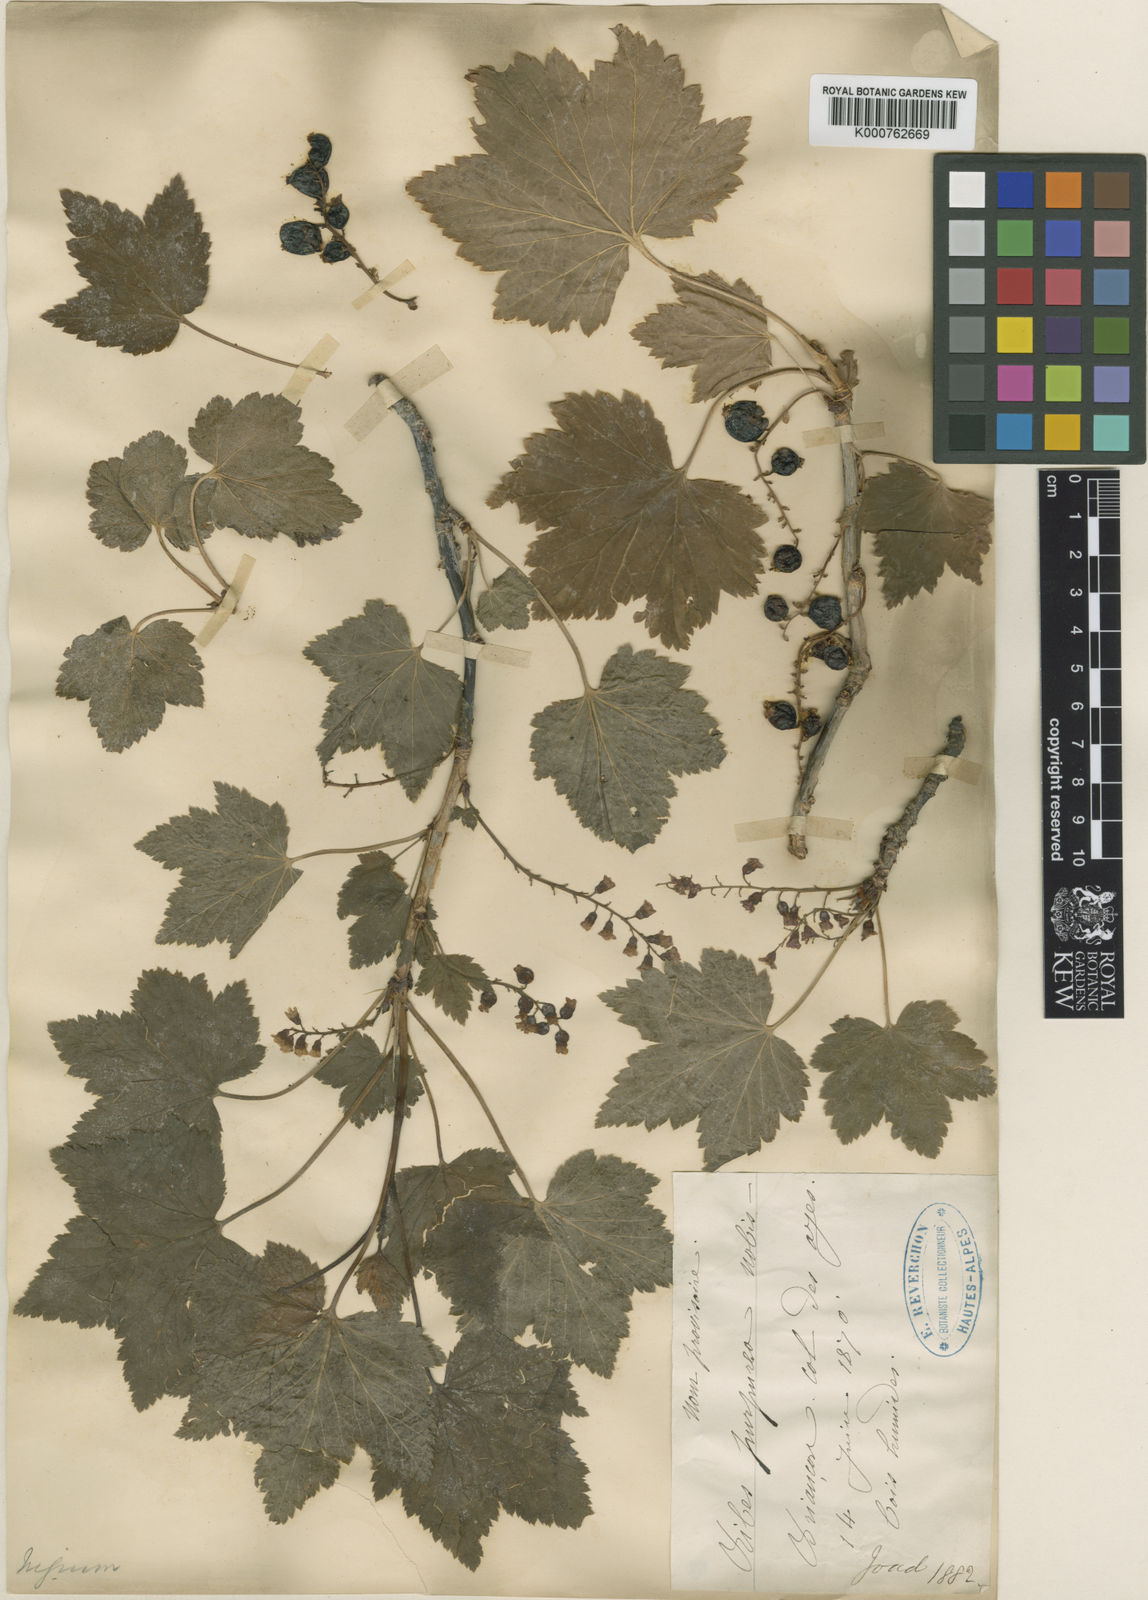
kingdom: Plantae
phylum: Tracheophyta
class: Magnoliopsida
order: Saxifragales
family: Grossulariaceae
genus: Ribes
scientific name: Ribes nigrum
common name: Black currant
